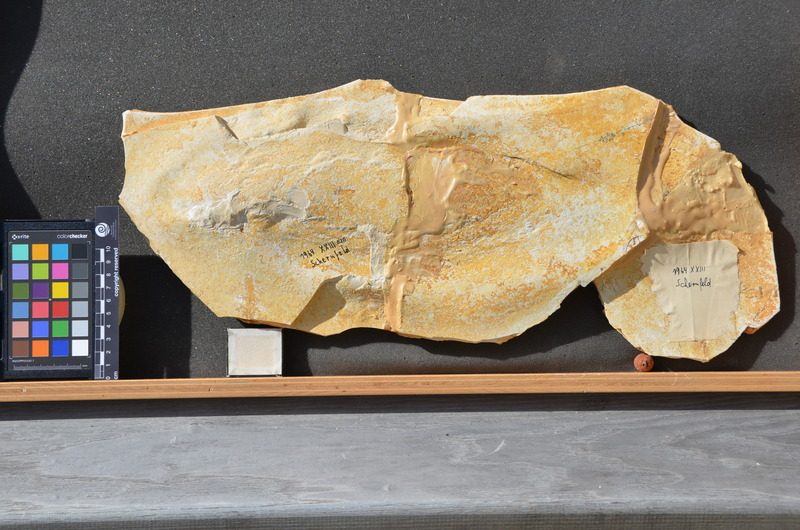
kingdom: Animalia
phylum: Chordata
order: Amiiformes
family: Caturidae
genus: Caturus
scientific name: Caturus
